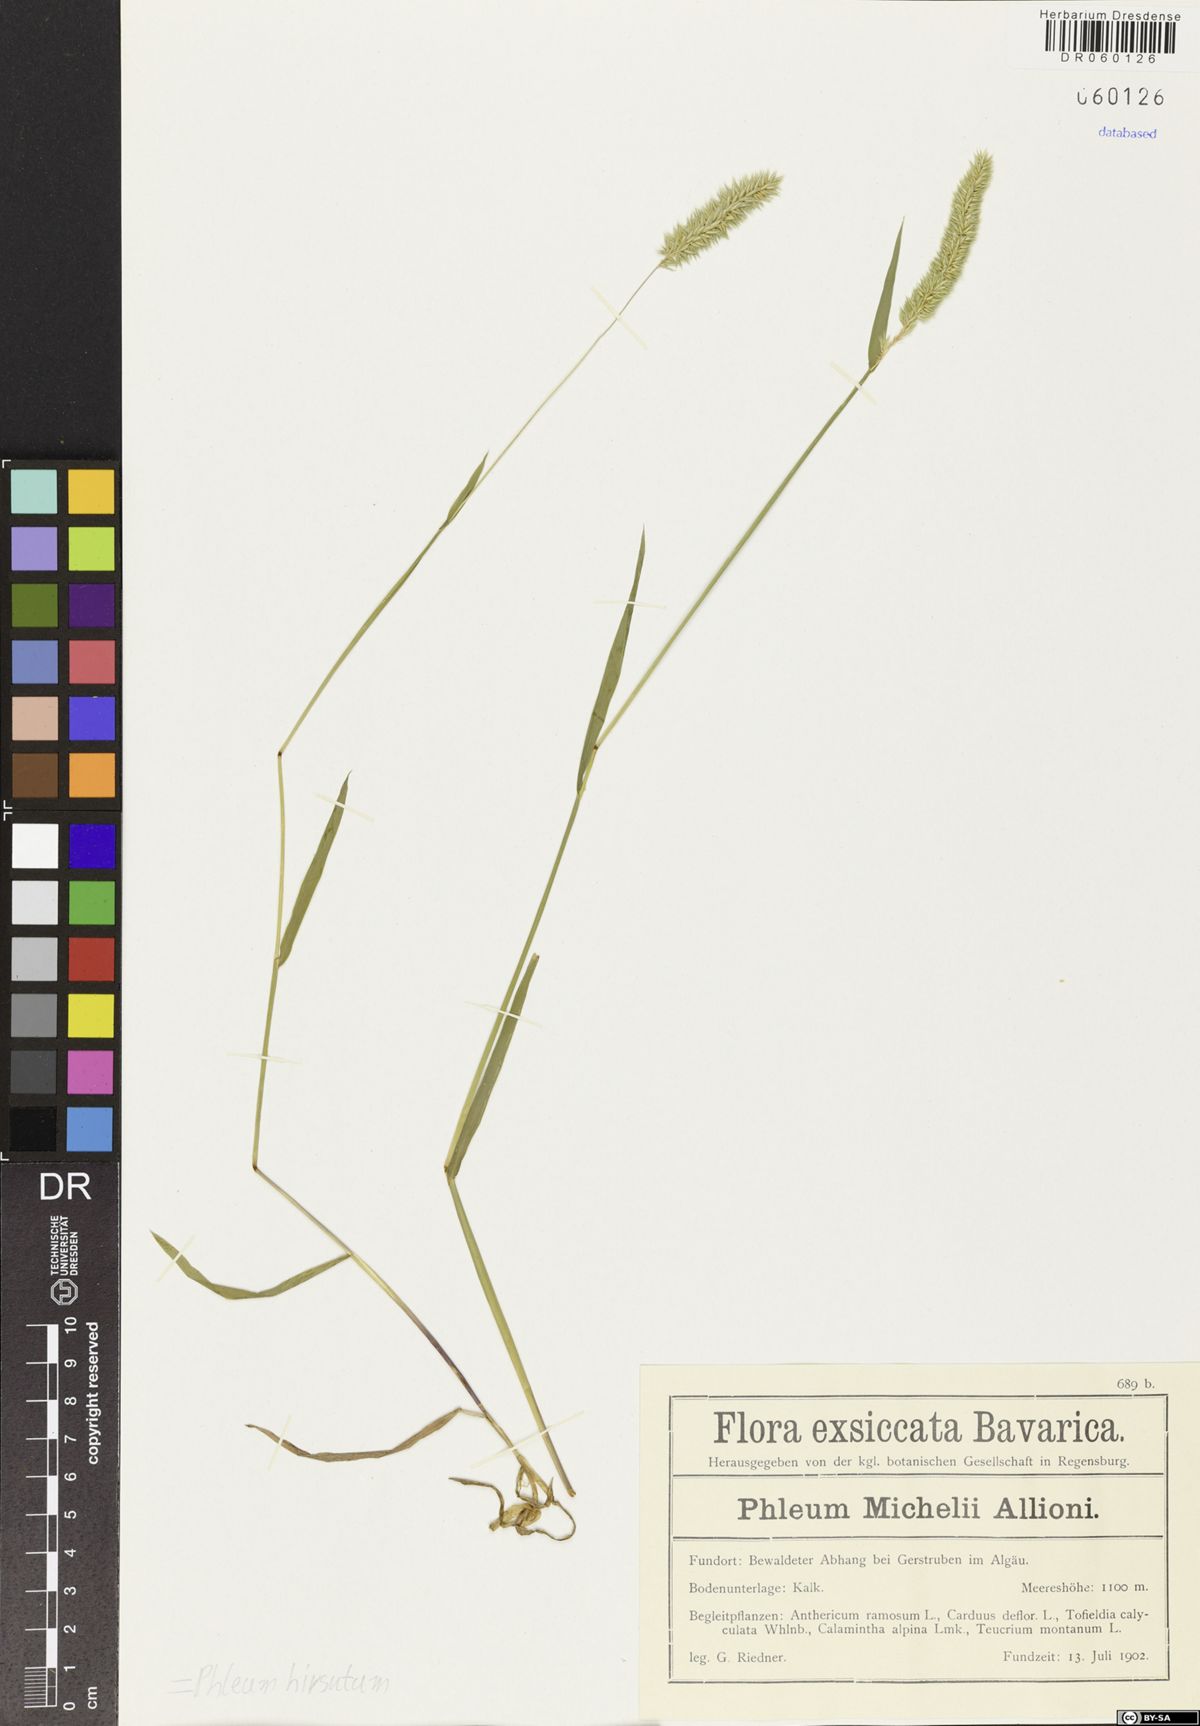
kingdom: Plantae
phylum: Tracheophyta
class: Liliopsida
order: Poales
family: Poaceae
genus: Phleum
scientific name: Phleum hirsutum
